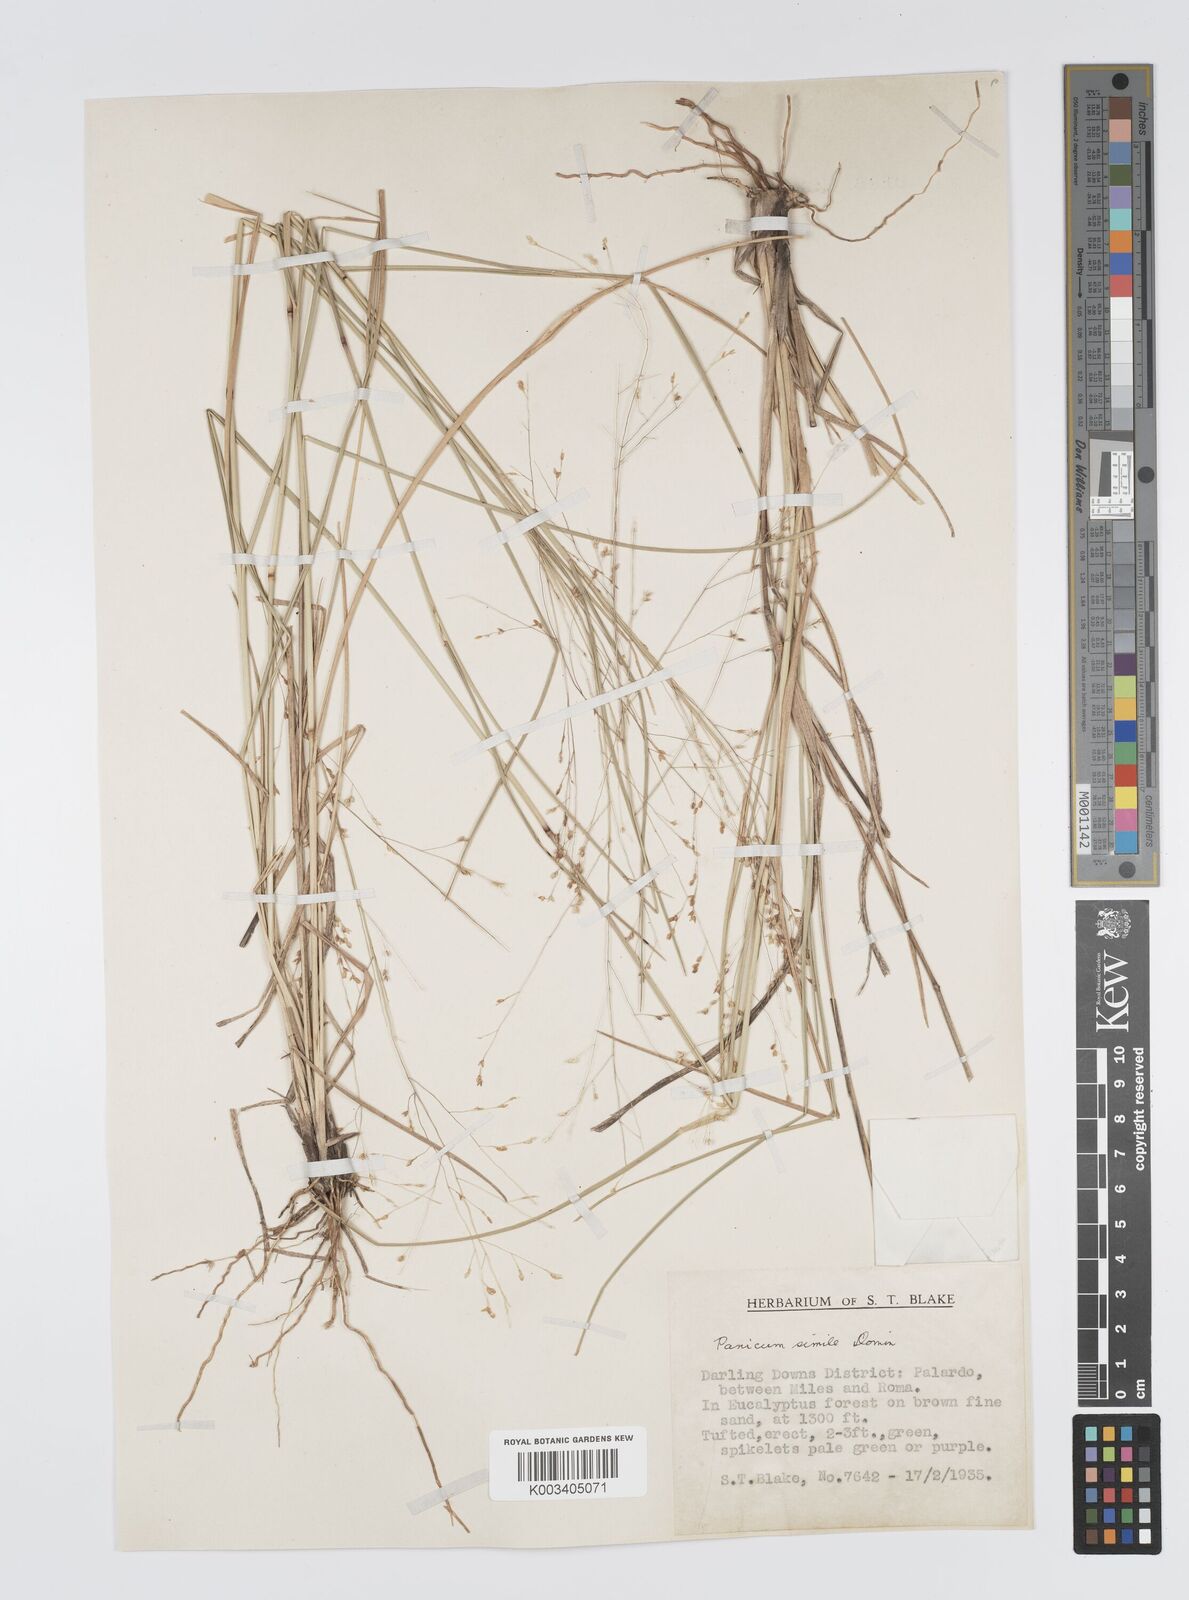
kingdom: Plantae
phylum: Tracheophyta
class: Liliopsida
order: Poales
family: Poaceae
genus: Panicum
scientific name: Panicum simile
